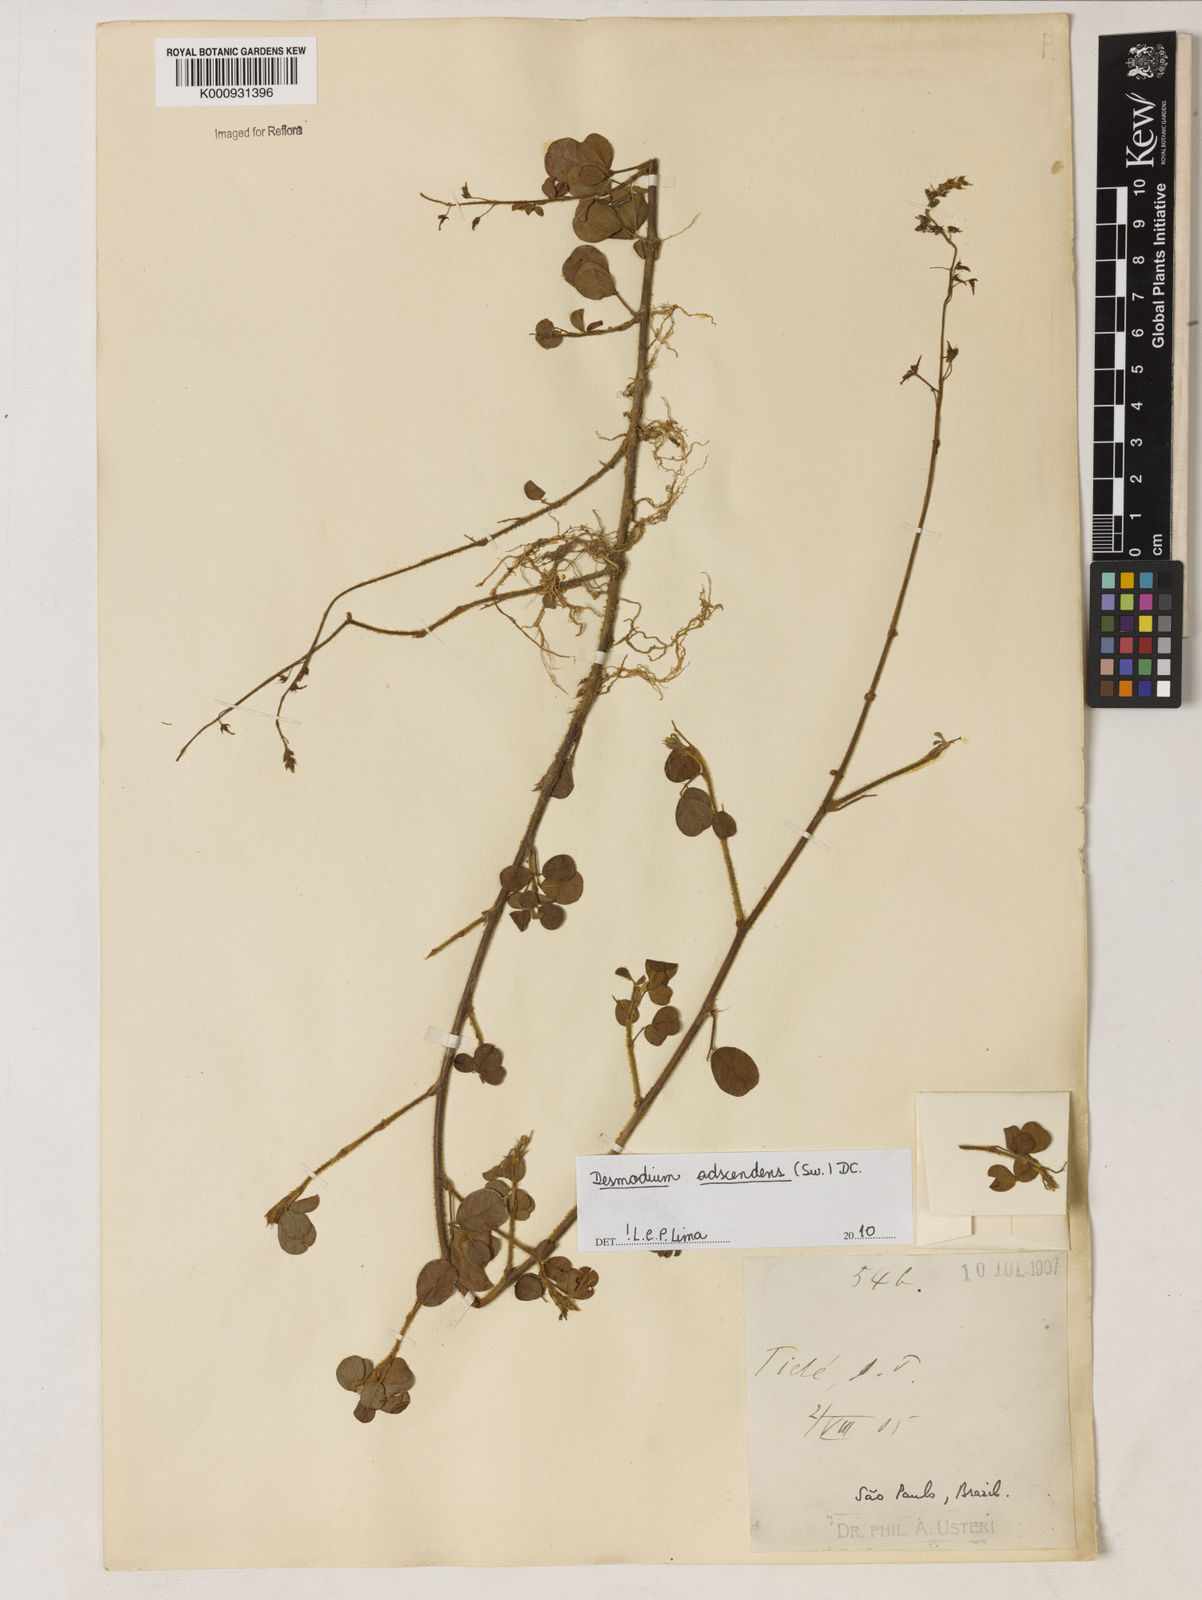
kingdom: Plantae
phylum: Tracheophyta
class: Magnoliopsida
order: Fabales
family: Fabaceae
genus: Grona
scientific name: Grona adscendens
